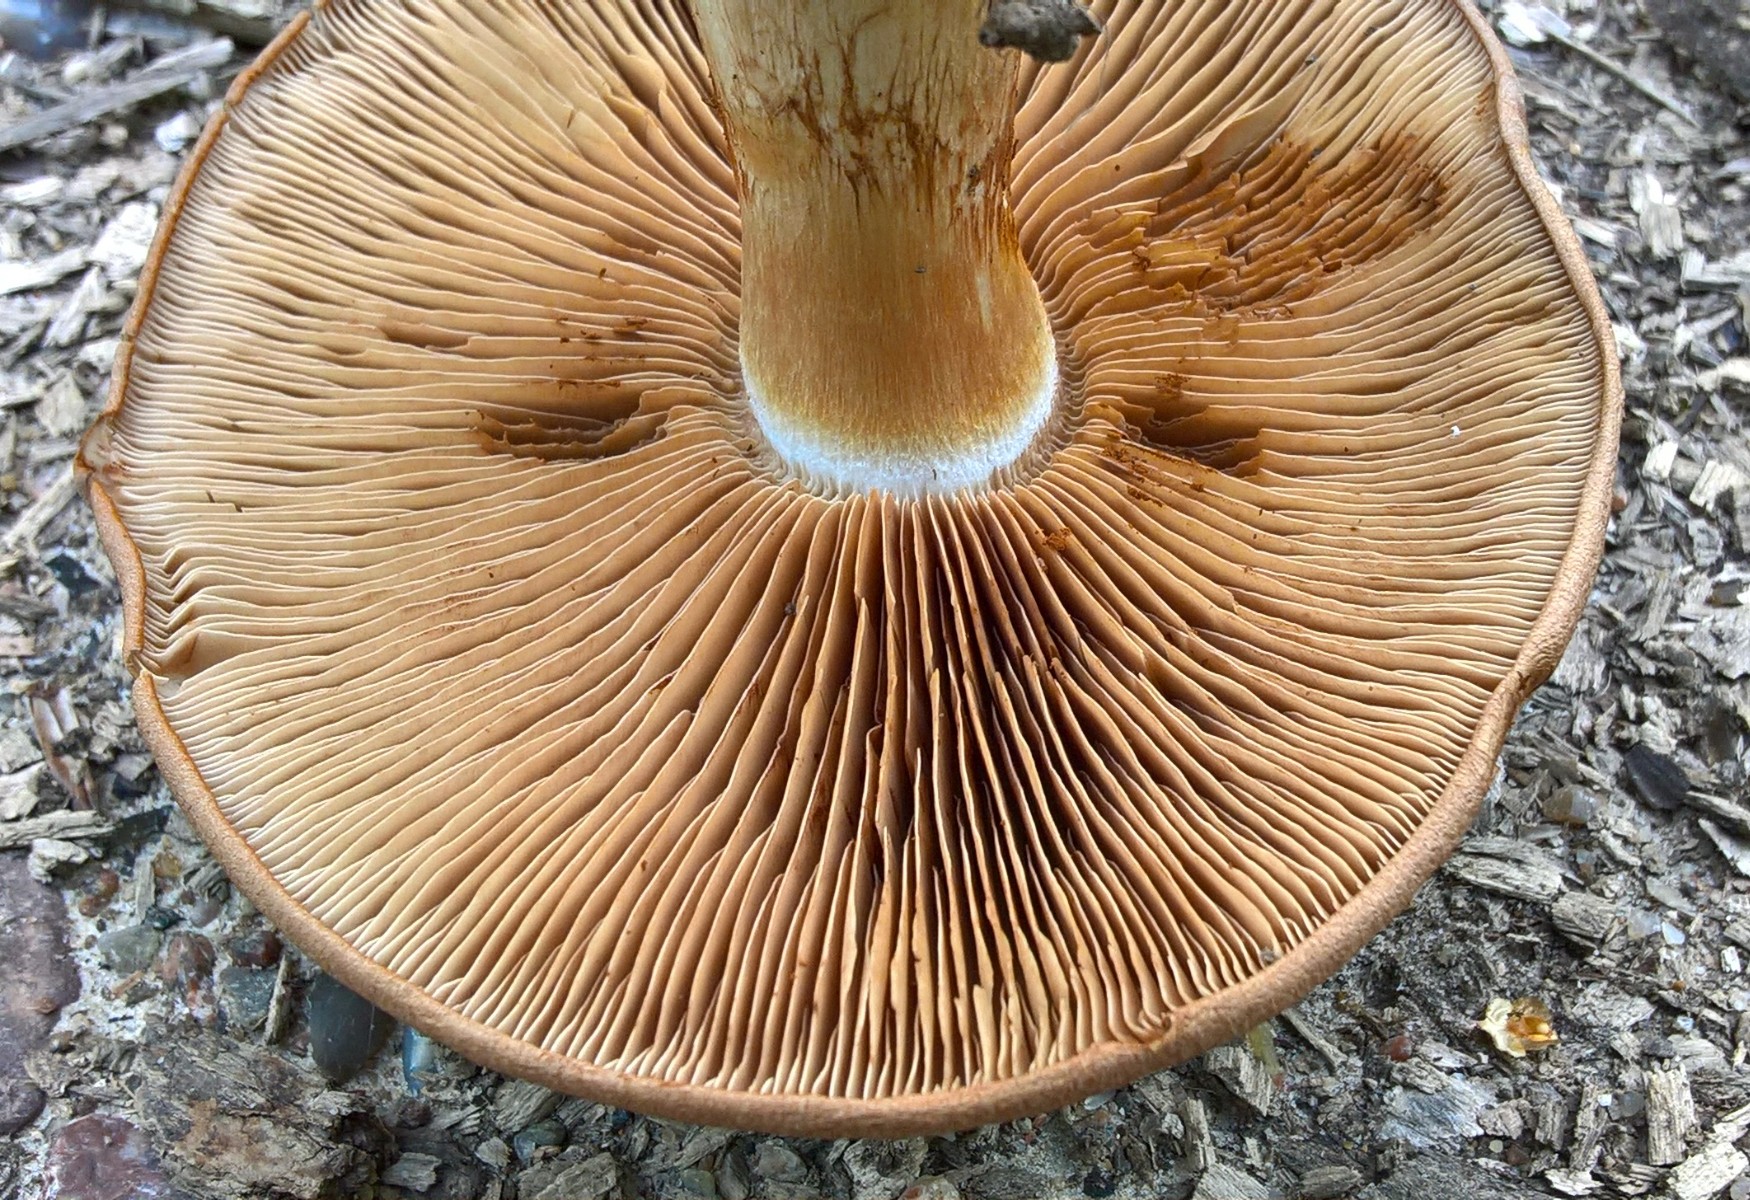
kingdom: Fungi
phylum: Basidiomycota
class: Agaricomycetes
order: Agaricales
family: Cortinariaceae
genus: Cortinarius
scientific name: Cortinarius
